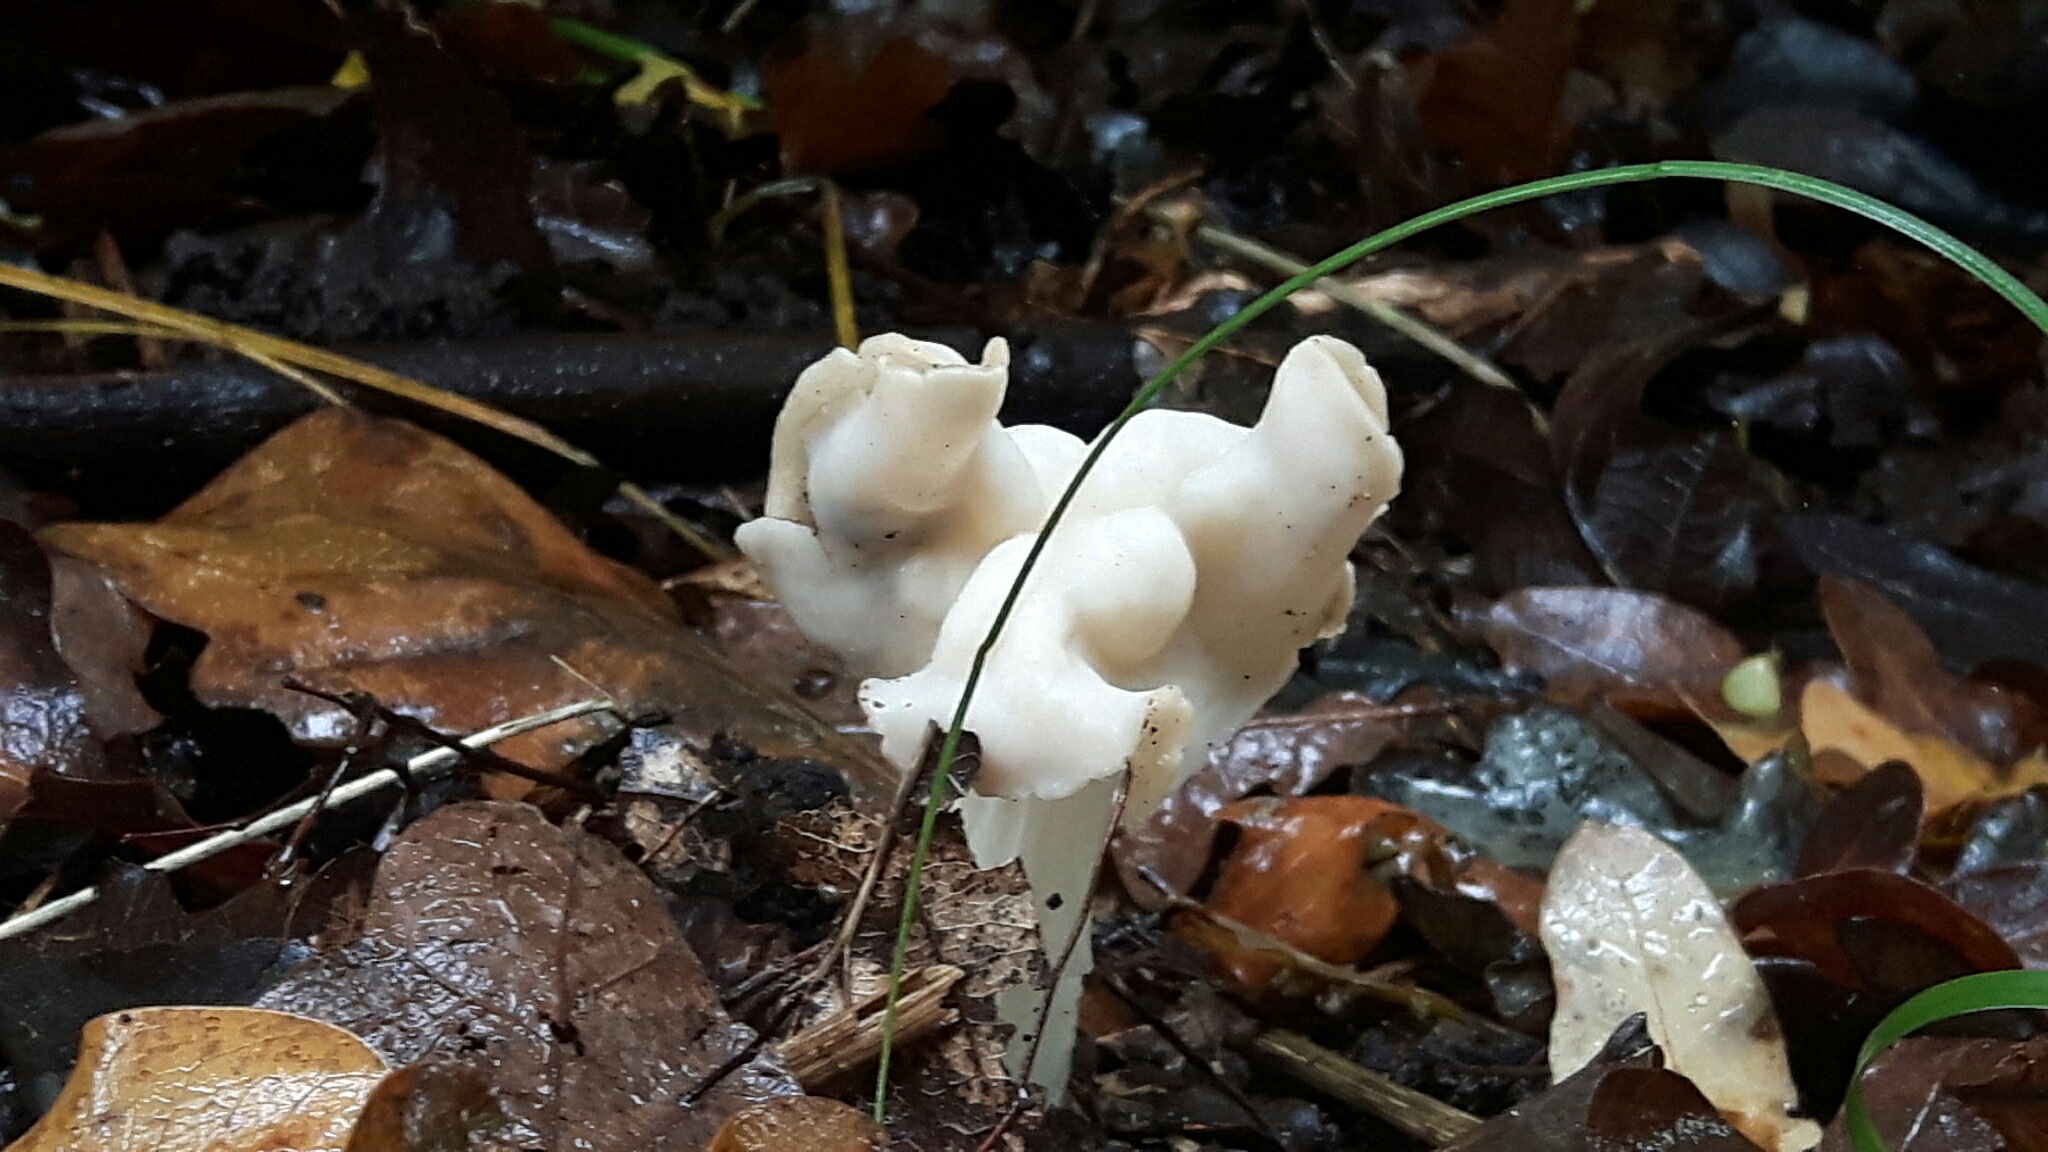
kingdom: Fungi
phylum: Ascomycota
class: Pezizomycetes
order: Pezizales
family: Helvellaceae
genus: Helvella
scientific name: Helvella crispa
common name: kruset foldhat
